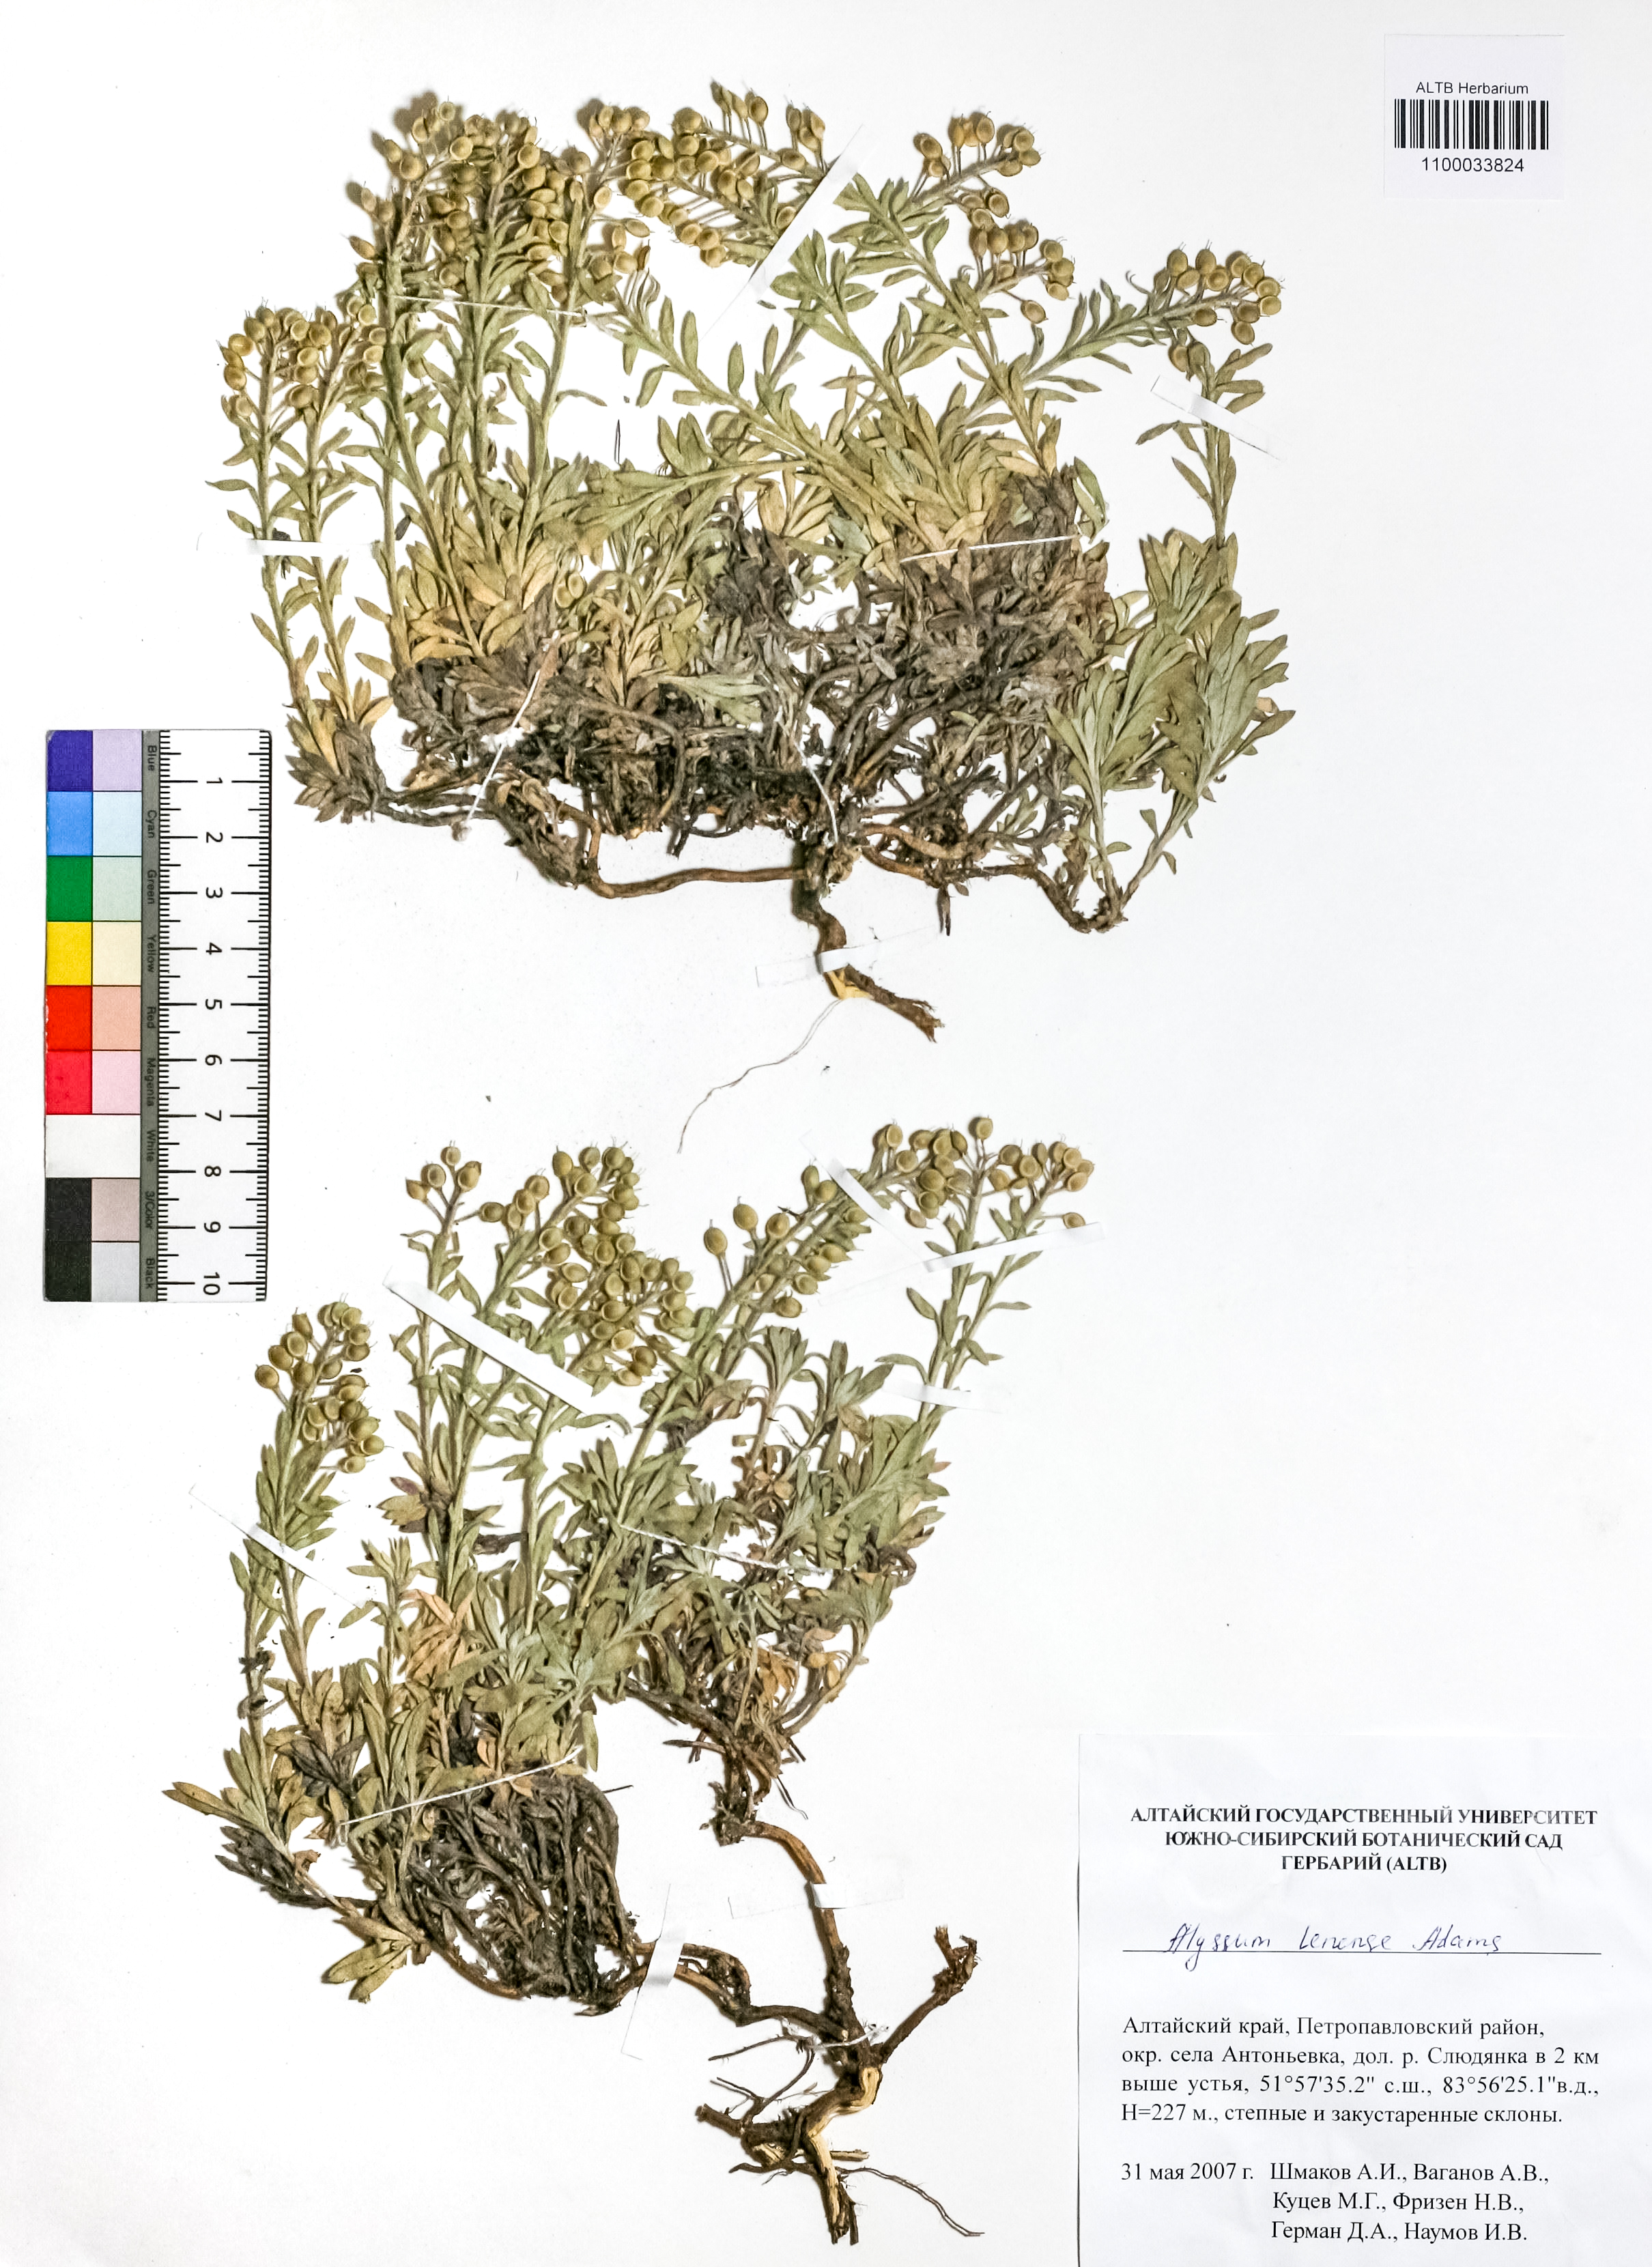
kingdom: Plantae
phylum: Tracheophyta
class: Magnoliopsida
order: Brassicales
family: Brassicaceae
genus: Alyssum
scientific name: Alyssum lenense
